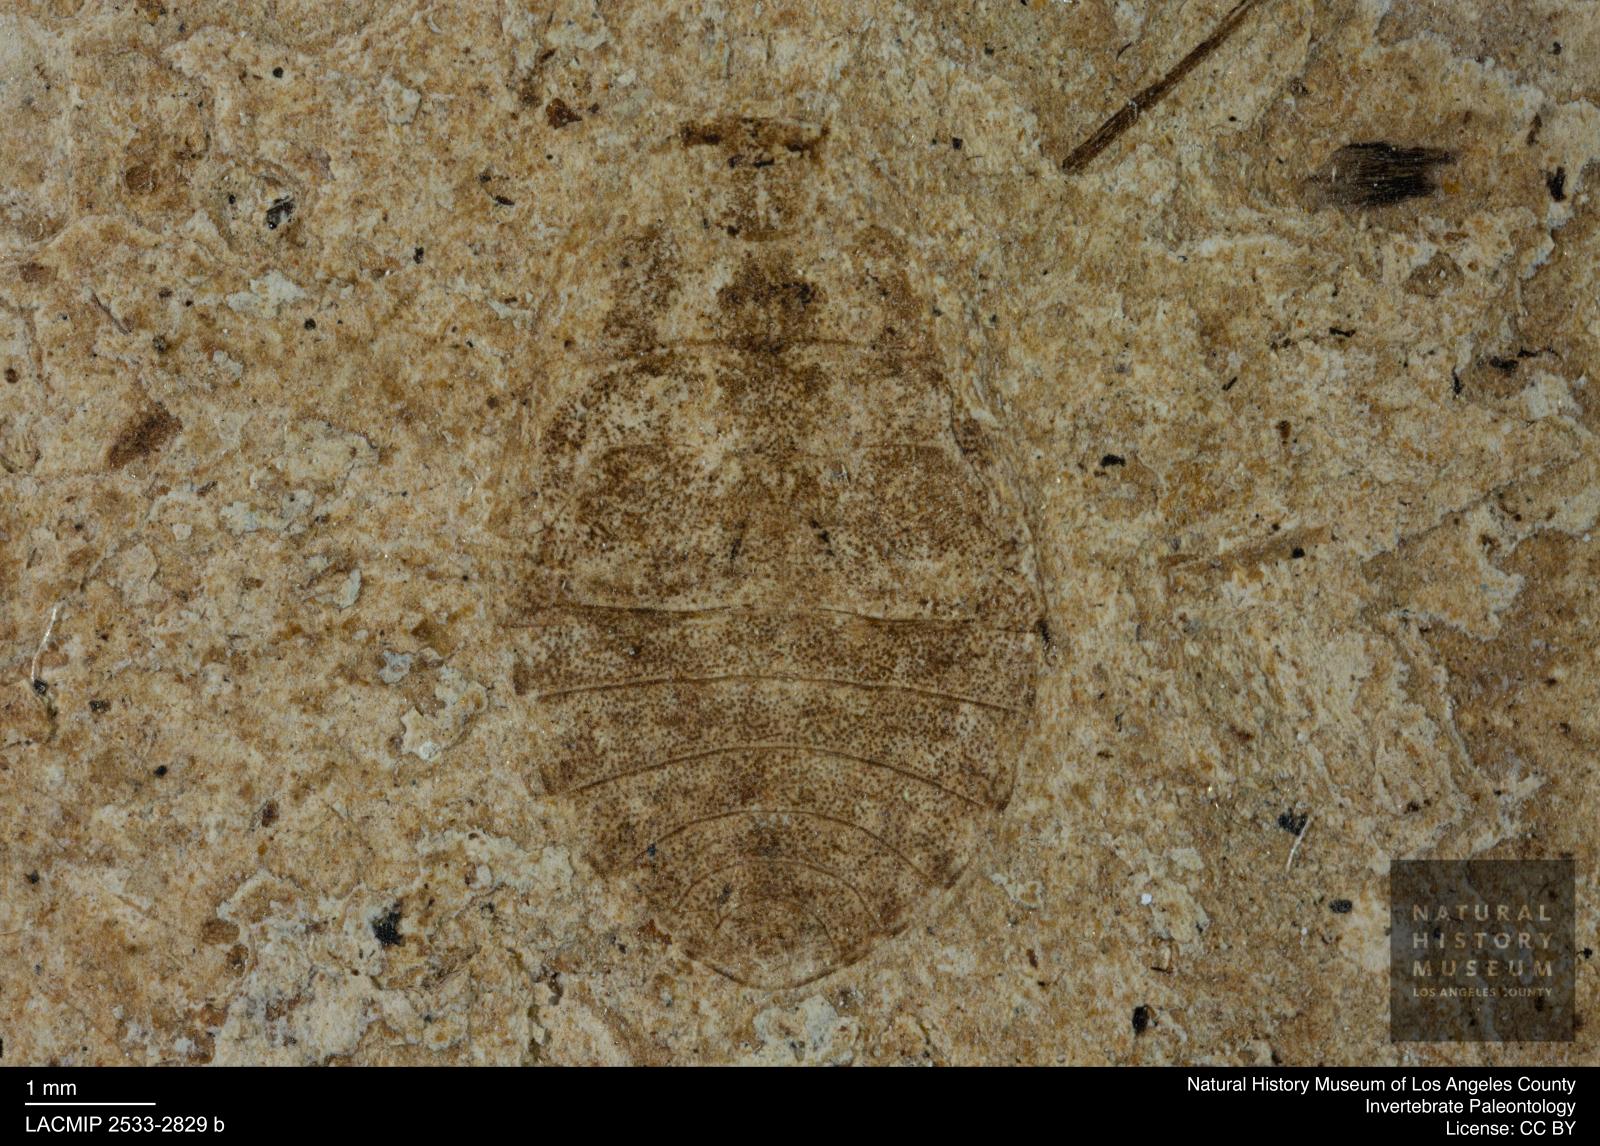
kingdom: Animalia
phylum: Arthropoda
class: Insecta
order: Hemiptera
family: Naucoridae
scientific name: Naucoridae
